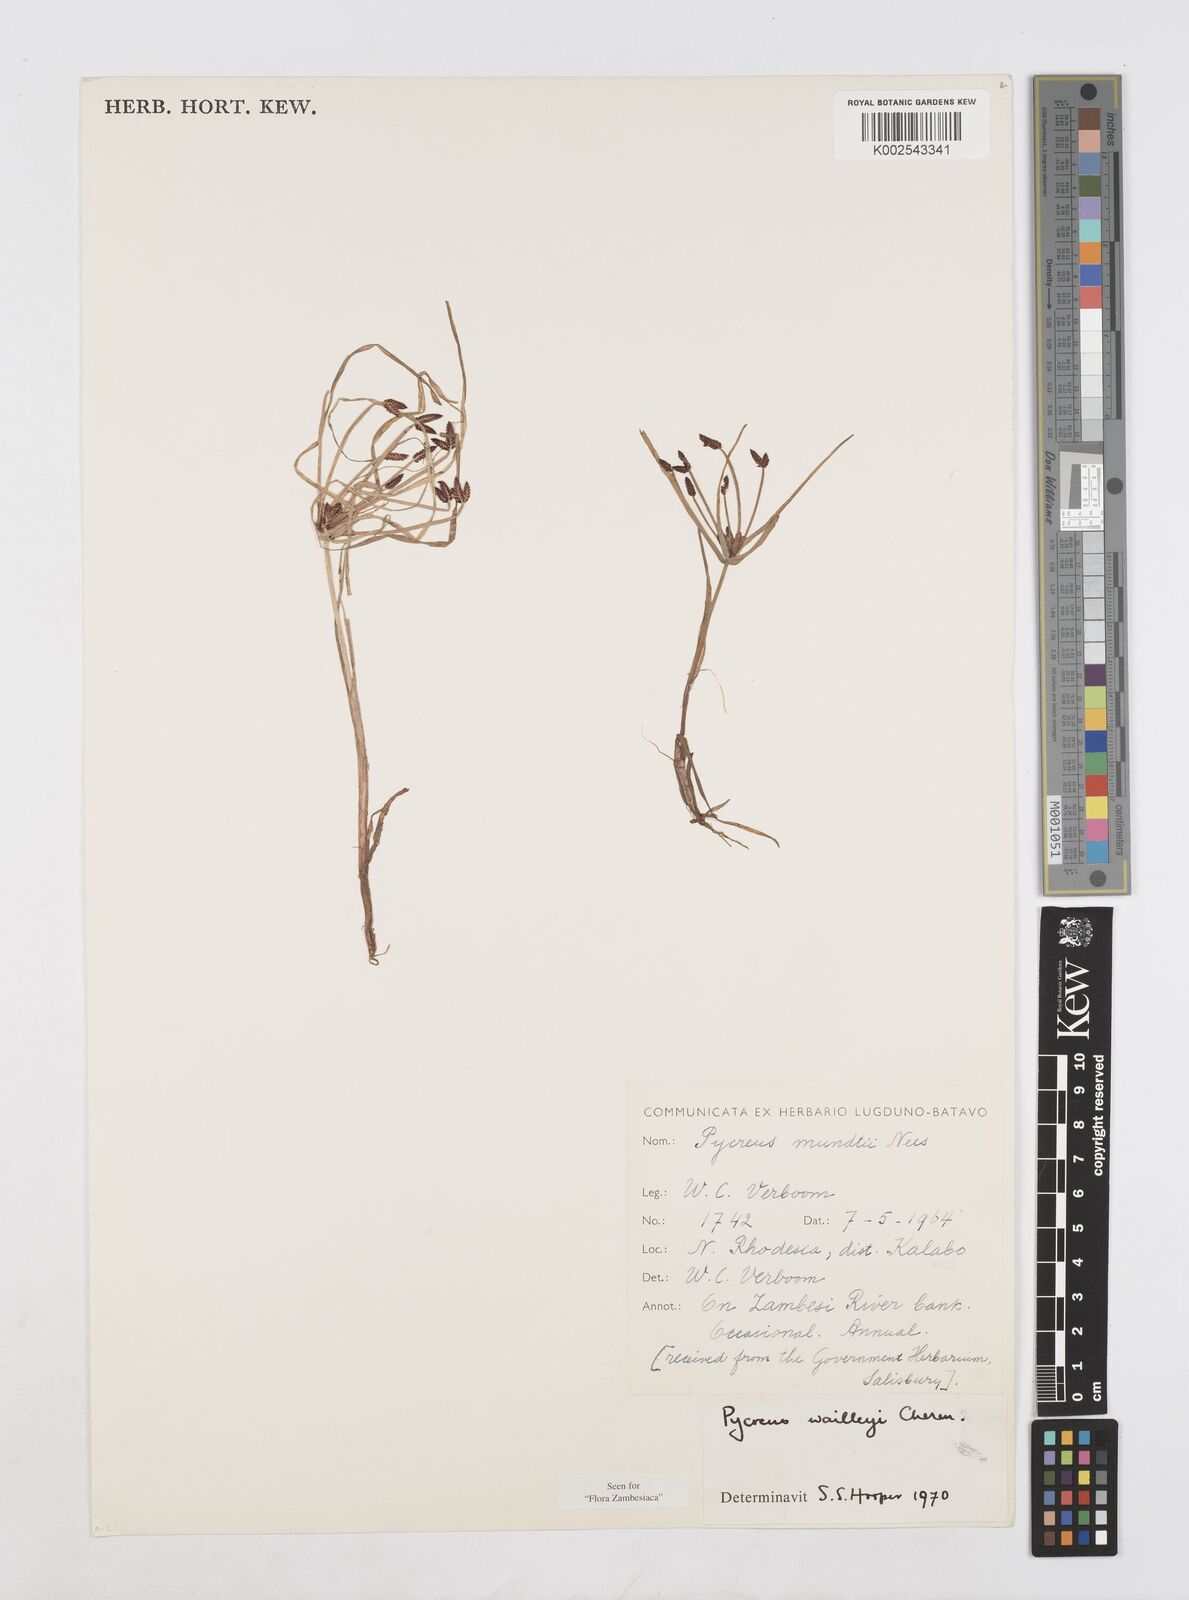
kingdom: Plantae
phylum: Tracheophyta
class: Liliopsida
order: Poales
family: Cyperaceae
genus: Cyperus
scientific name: Cyperus waillyi
